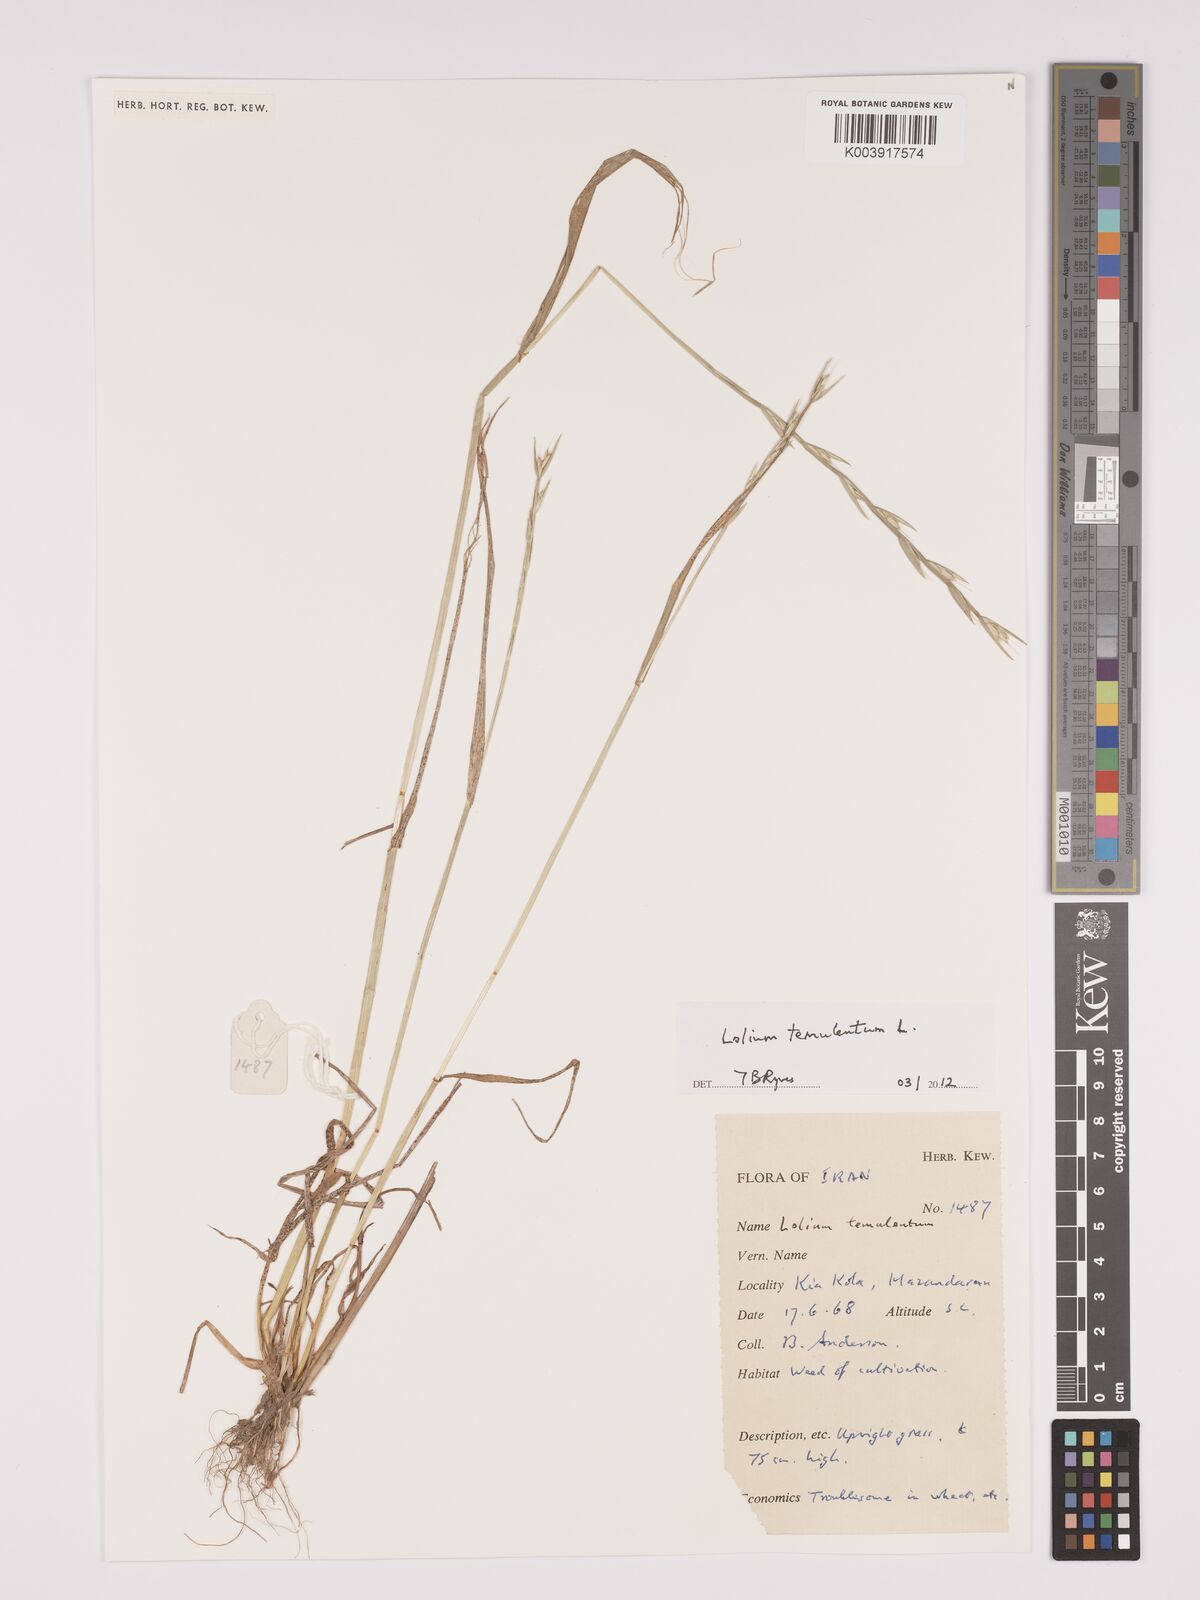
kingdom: Plantae
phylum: Tracheophyta
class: Liliopsida
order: Poales
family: Poaceae
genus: Lolium
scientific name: Lolium temulentum
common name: Darnel
